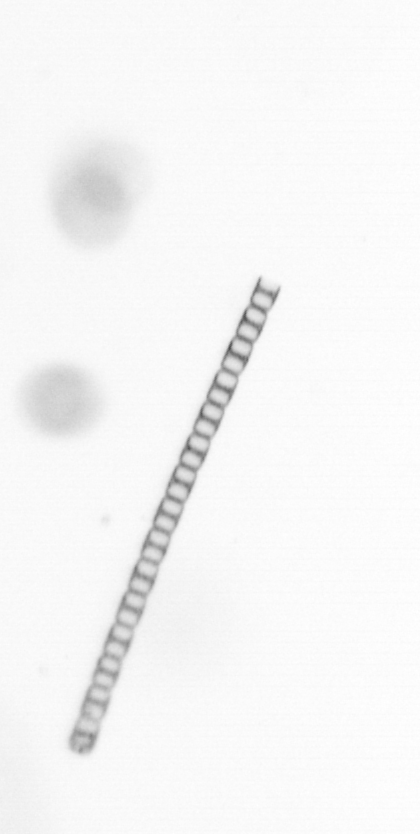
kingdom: Chromista
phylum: Ochrophyta
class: Bacillariophyceae
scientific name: Bacillariophyceae
